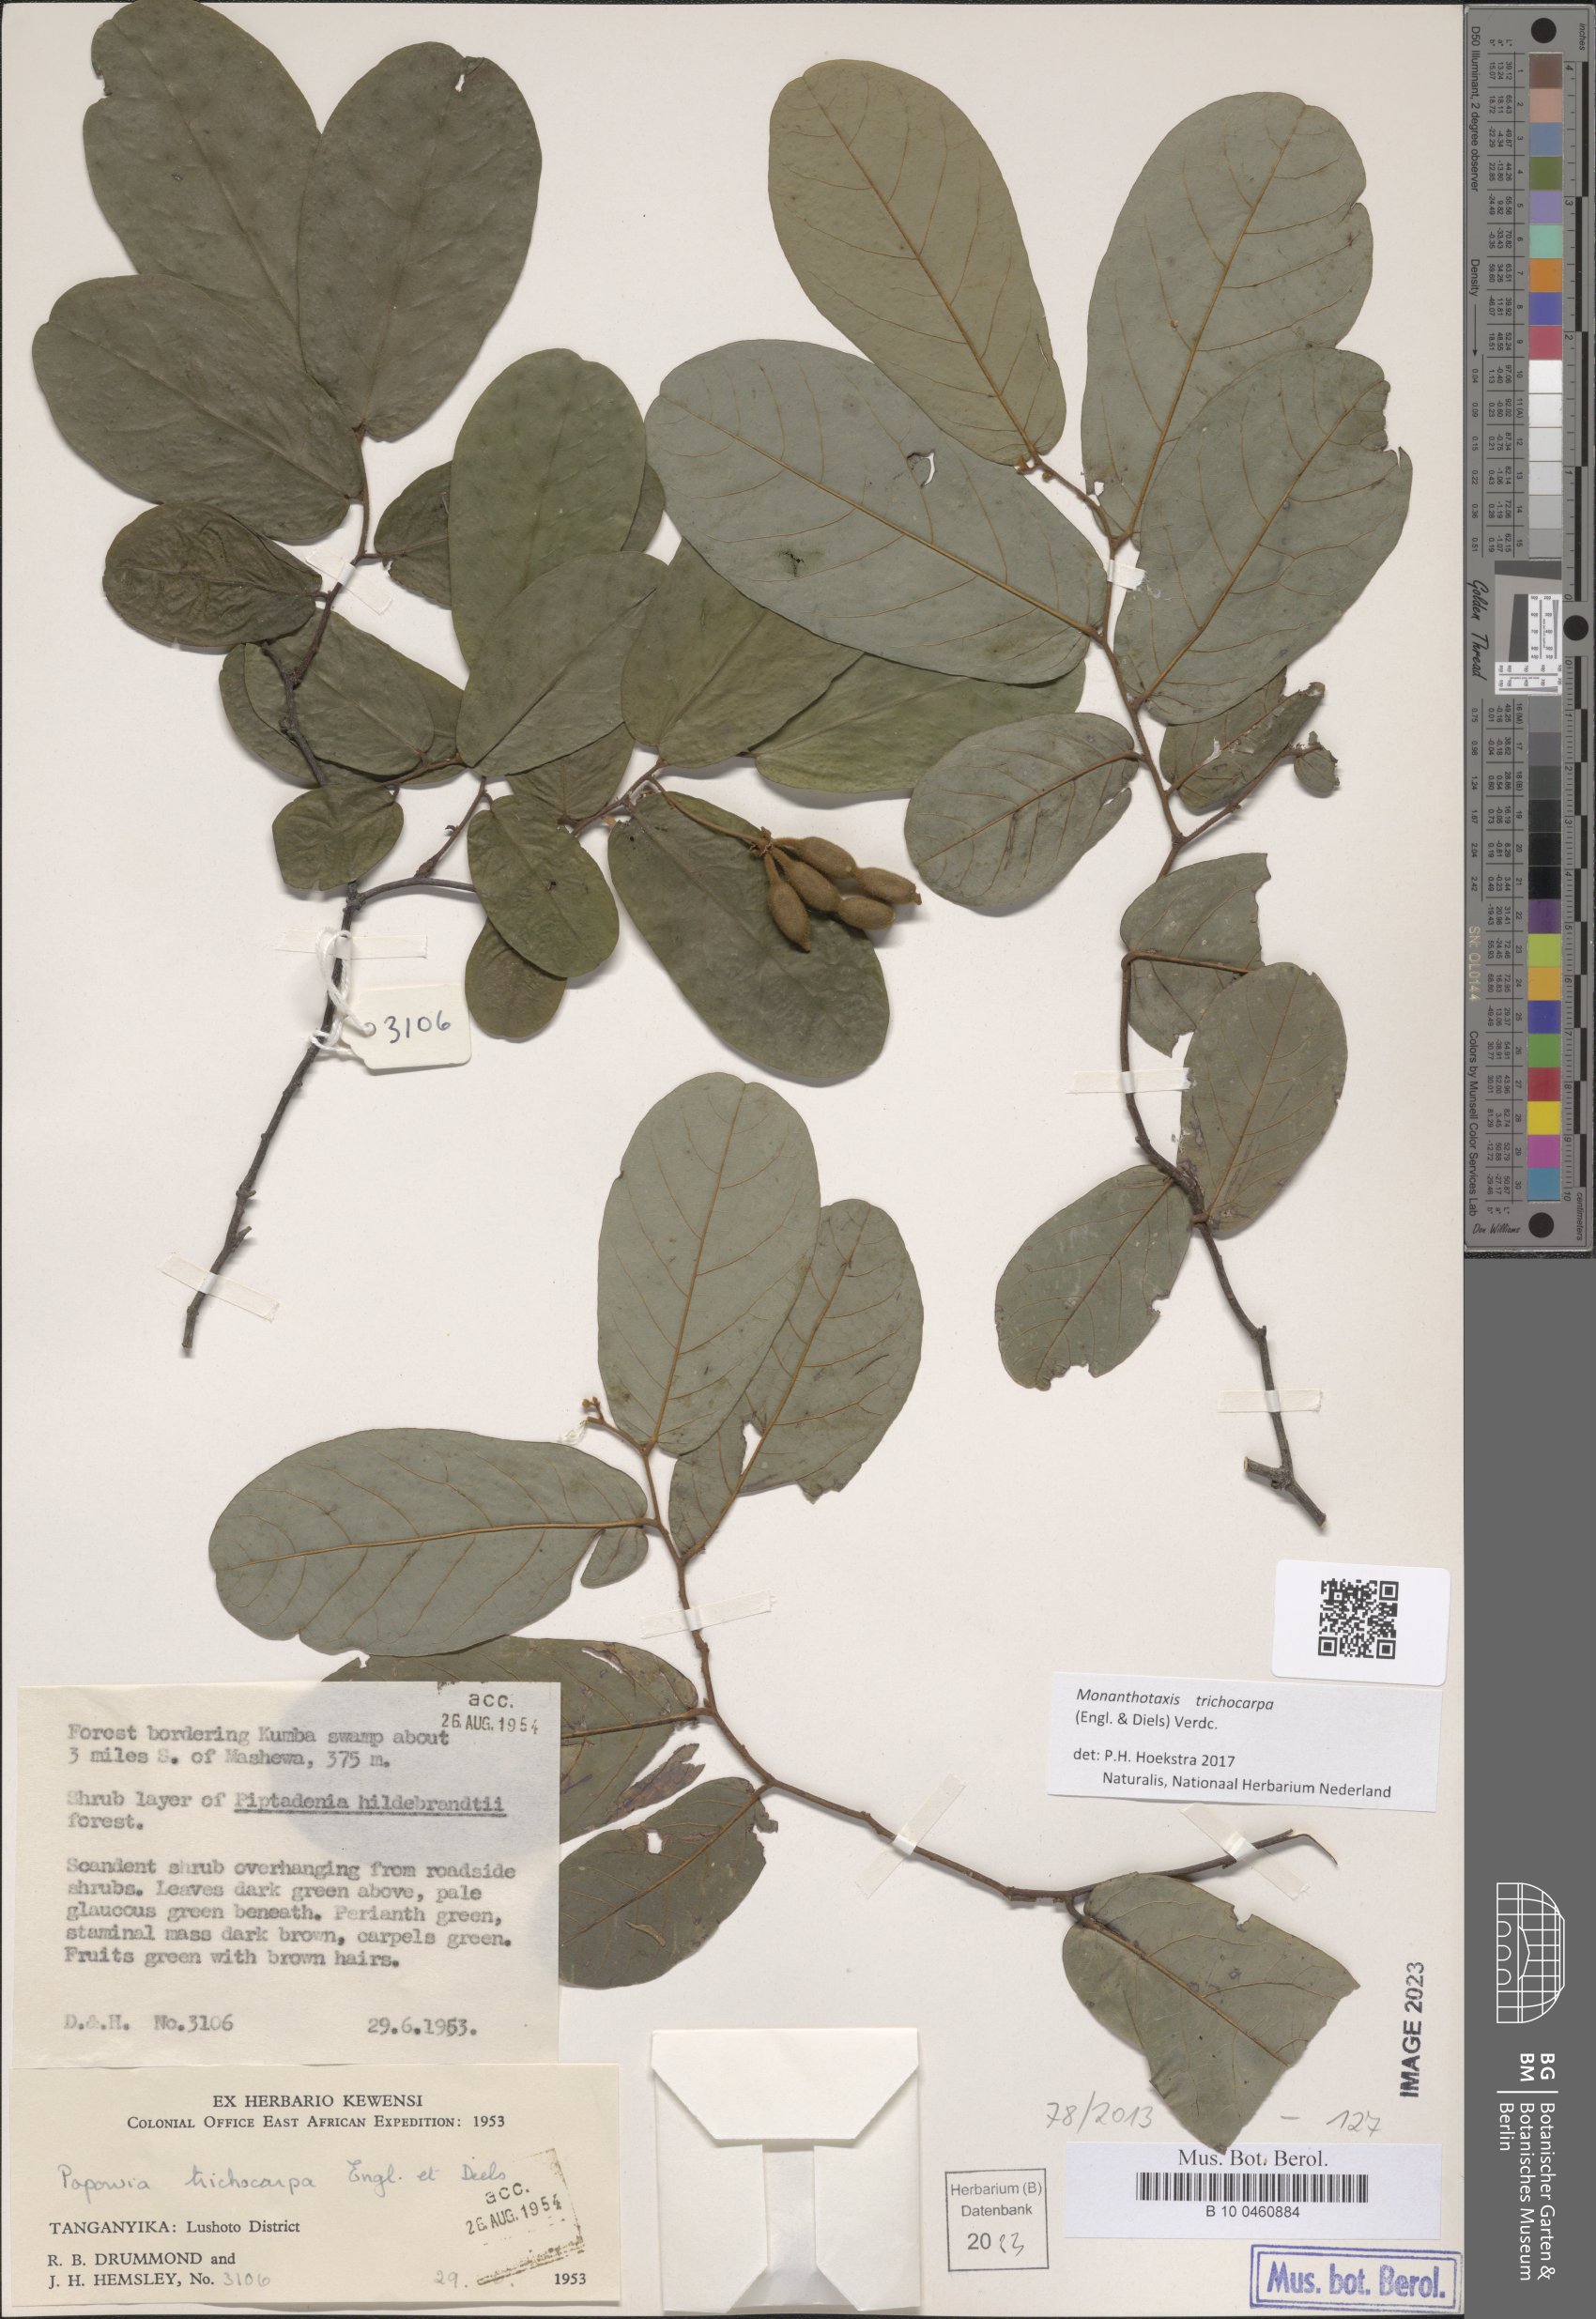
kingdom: Plantae
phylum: Tracheophyta
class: Magnoliopsida
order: Magnoliales
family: Annonaceae
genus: Monanthotaxis
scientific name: Monanthotaxis trichocarpa
